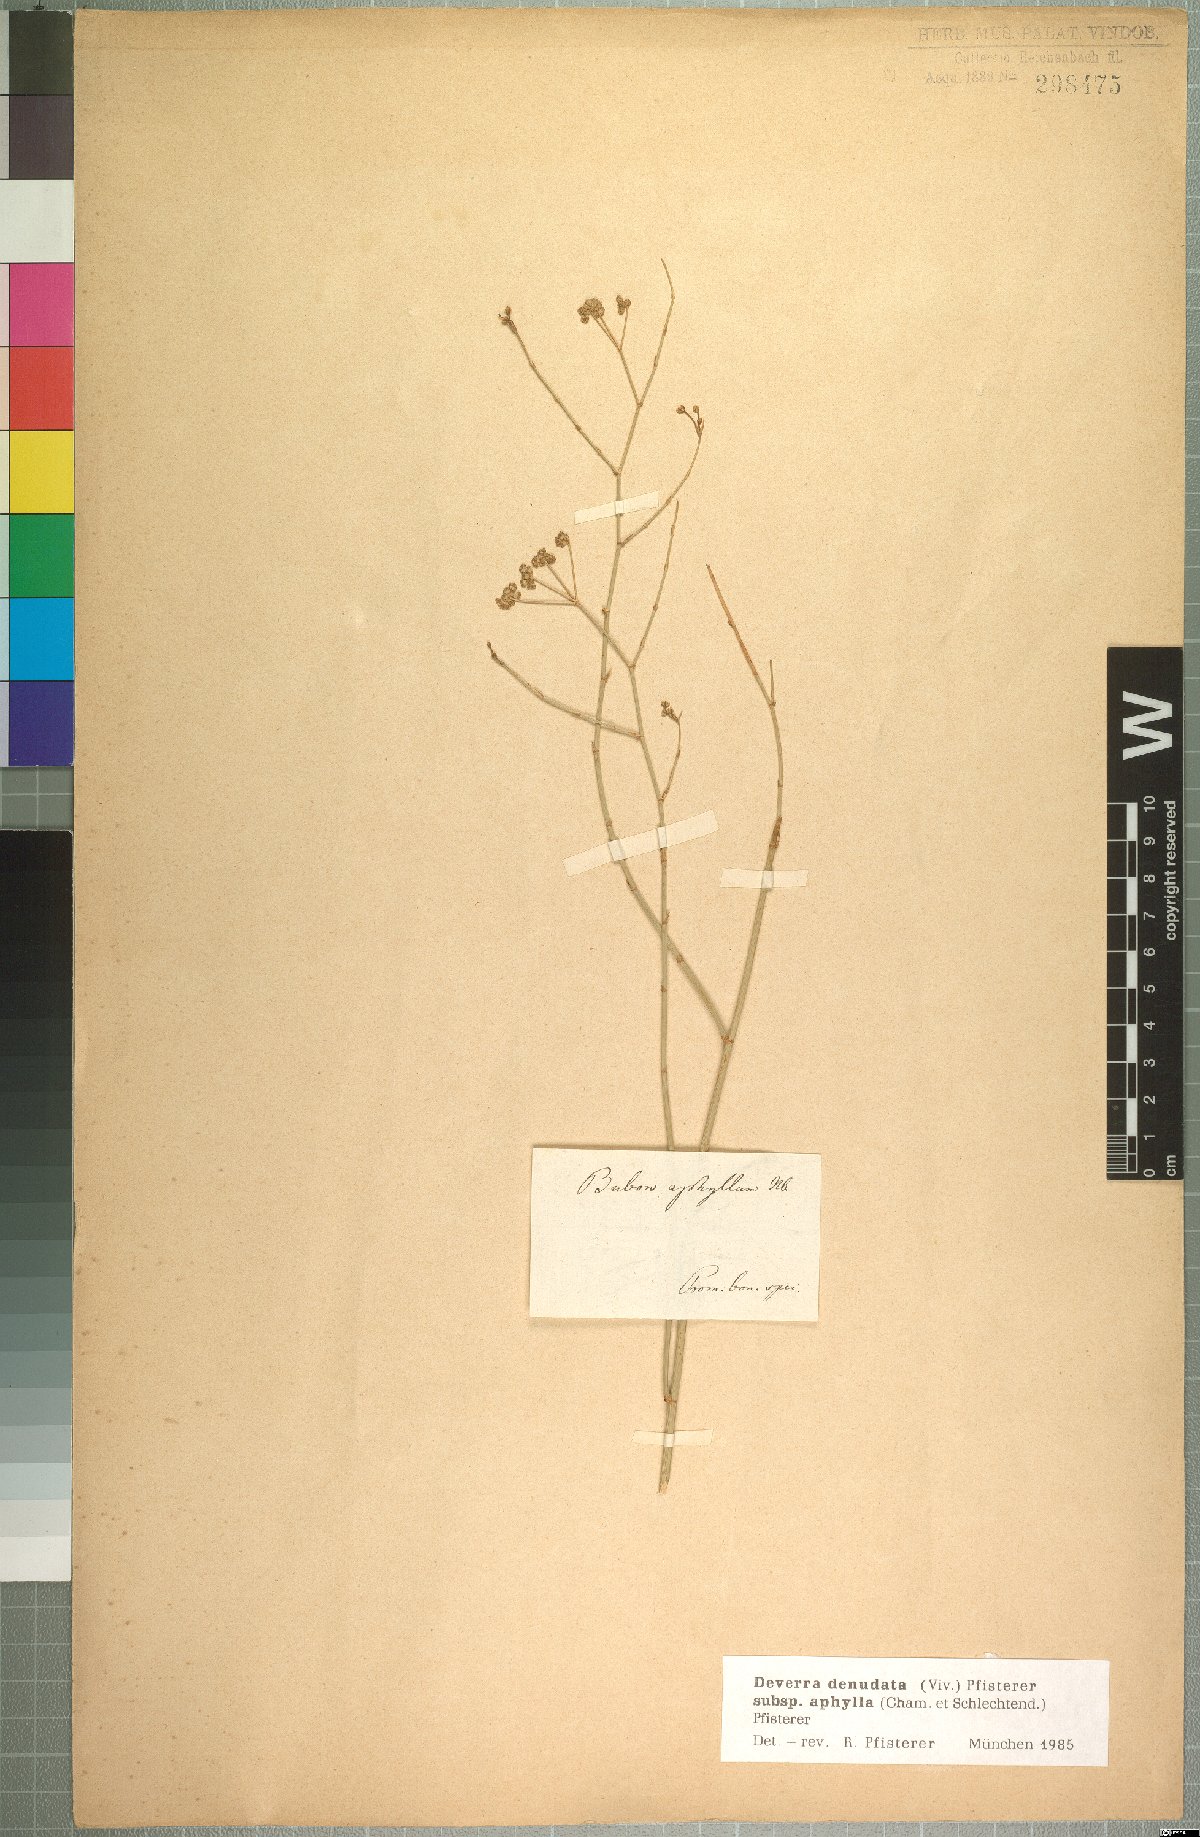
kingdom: Plantae
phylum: Tracheophyta
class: Magnoliopsida
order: Apiales
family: Apiaceae
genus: Deverra
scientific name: Deverra aphylla
